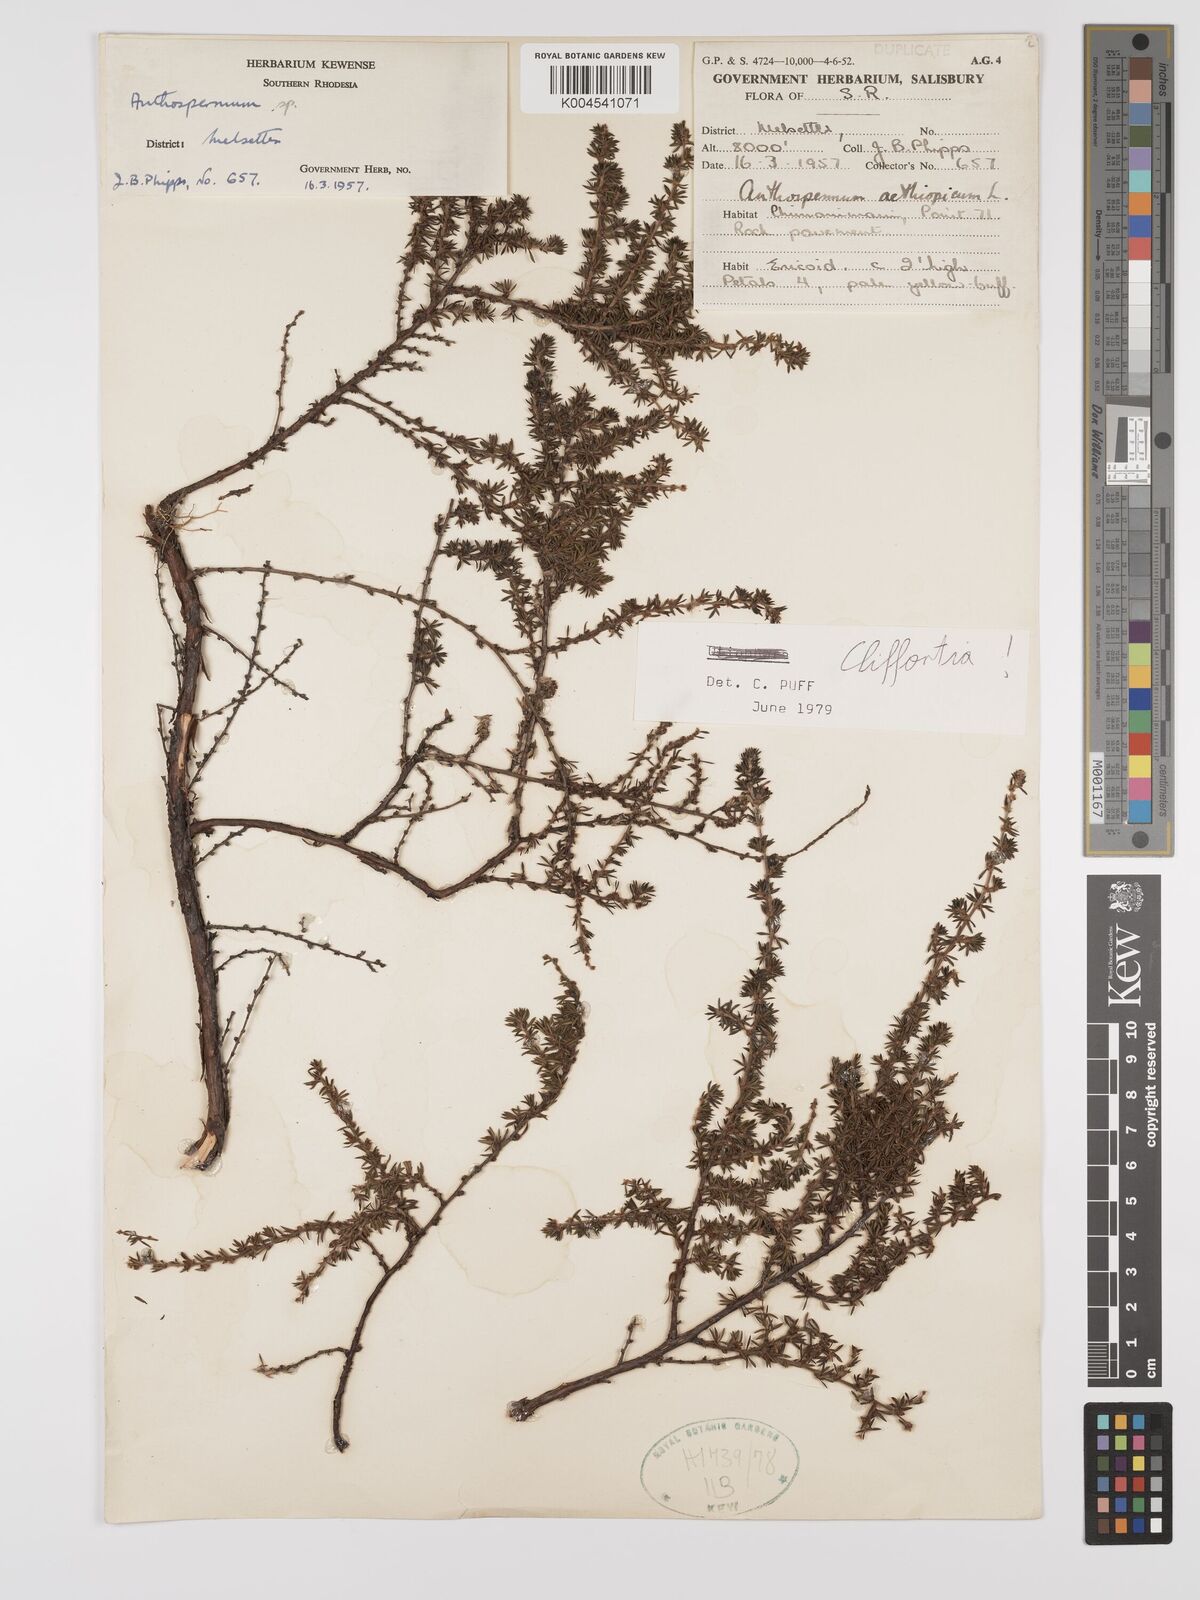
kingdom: Plantae
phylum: Tracheophyta
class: Magnoliopsida
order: Rosales
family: Rosaceae
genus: Cliffortia
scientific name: Cliffortia
